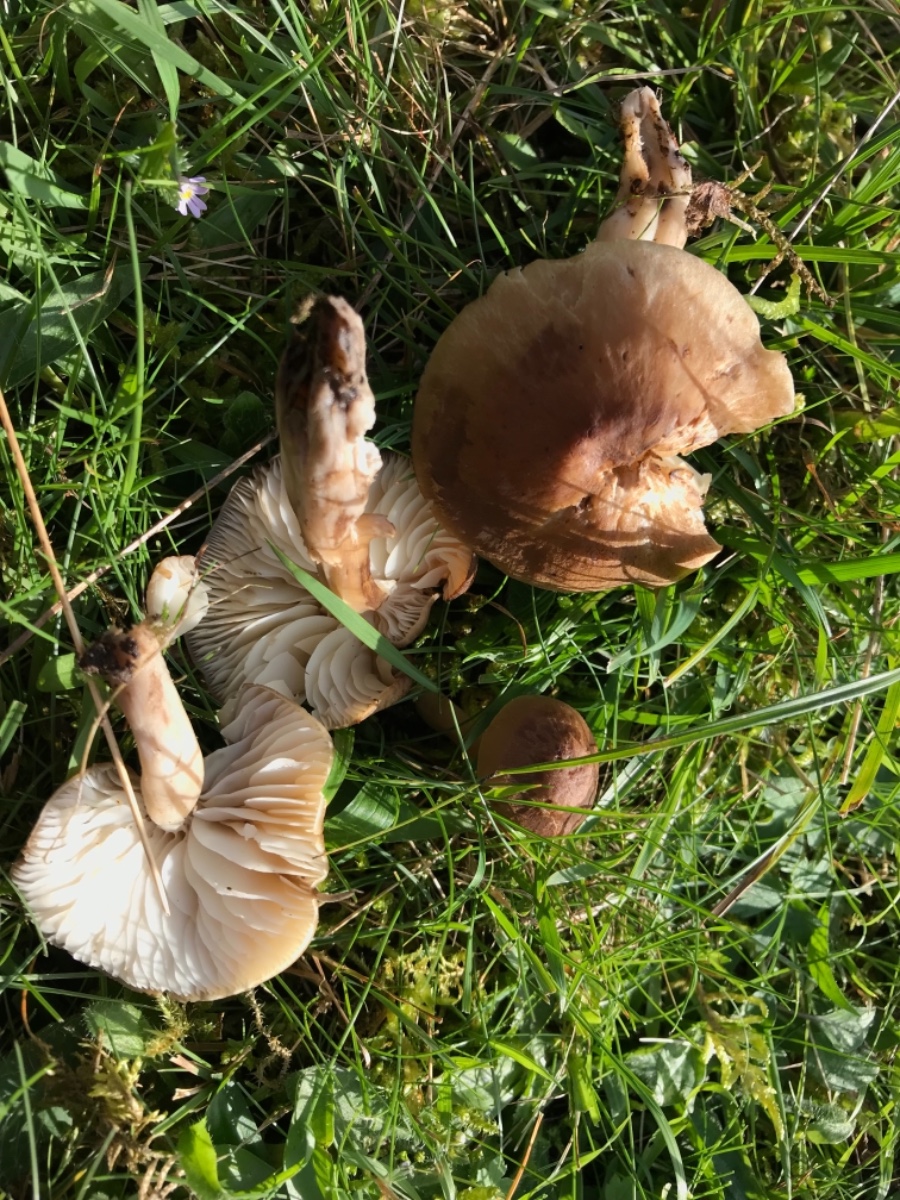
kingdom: Fungi
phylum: Basidiomycota
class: Agaricomycetes
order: Agaricales
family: Hygrophoraceae
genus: Neohygrocybe
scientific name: Neohygrocybe nitrata
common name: stinkende vokshat
